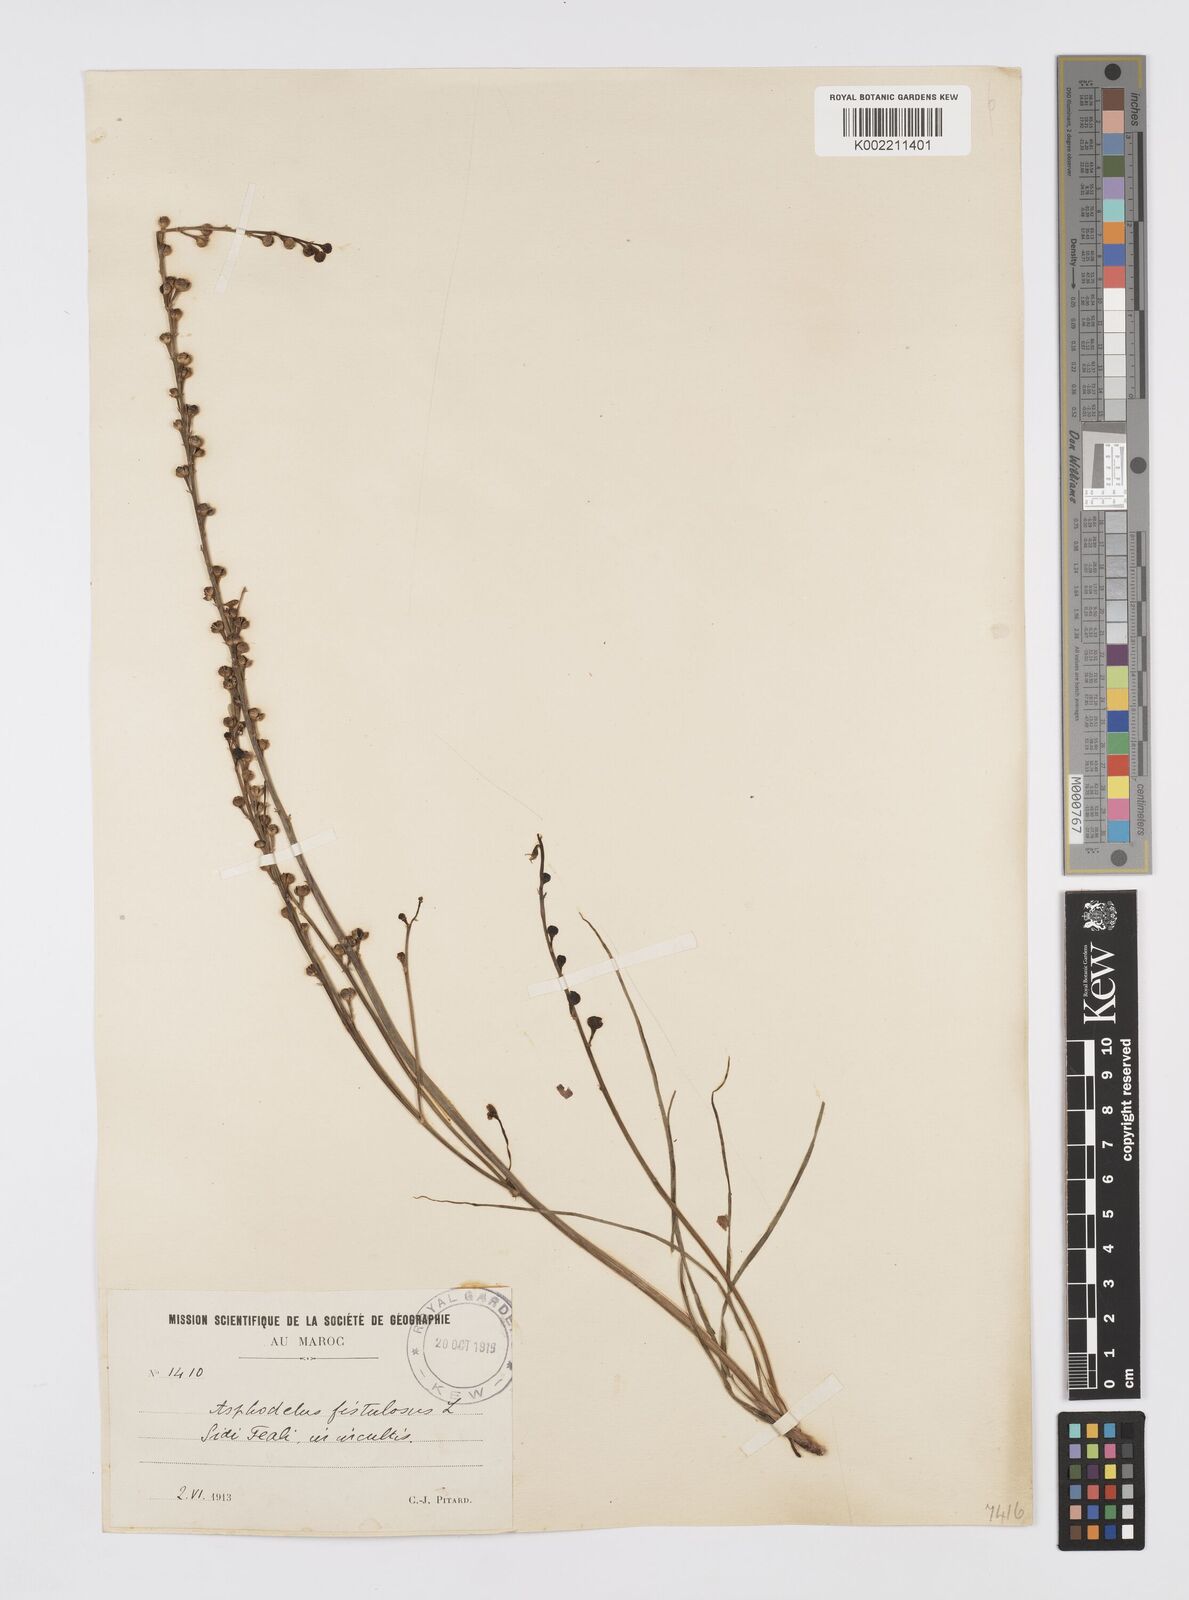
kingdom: Plantae
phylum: Tracheophyta
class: Liliopsida
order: Asparagales
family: Asphodelaceae
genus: Asphodelus
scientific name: Asphodelus fistulosus
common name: Onionweed
